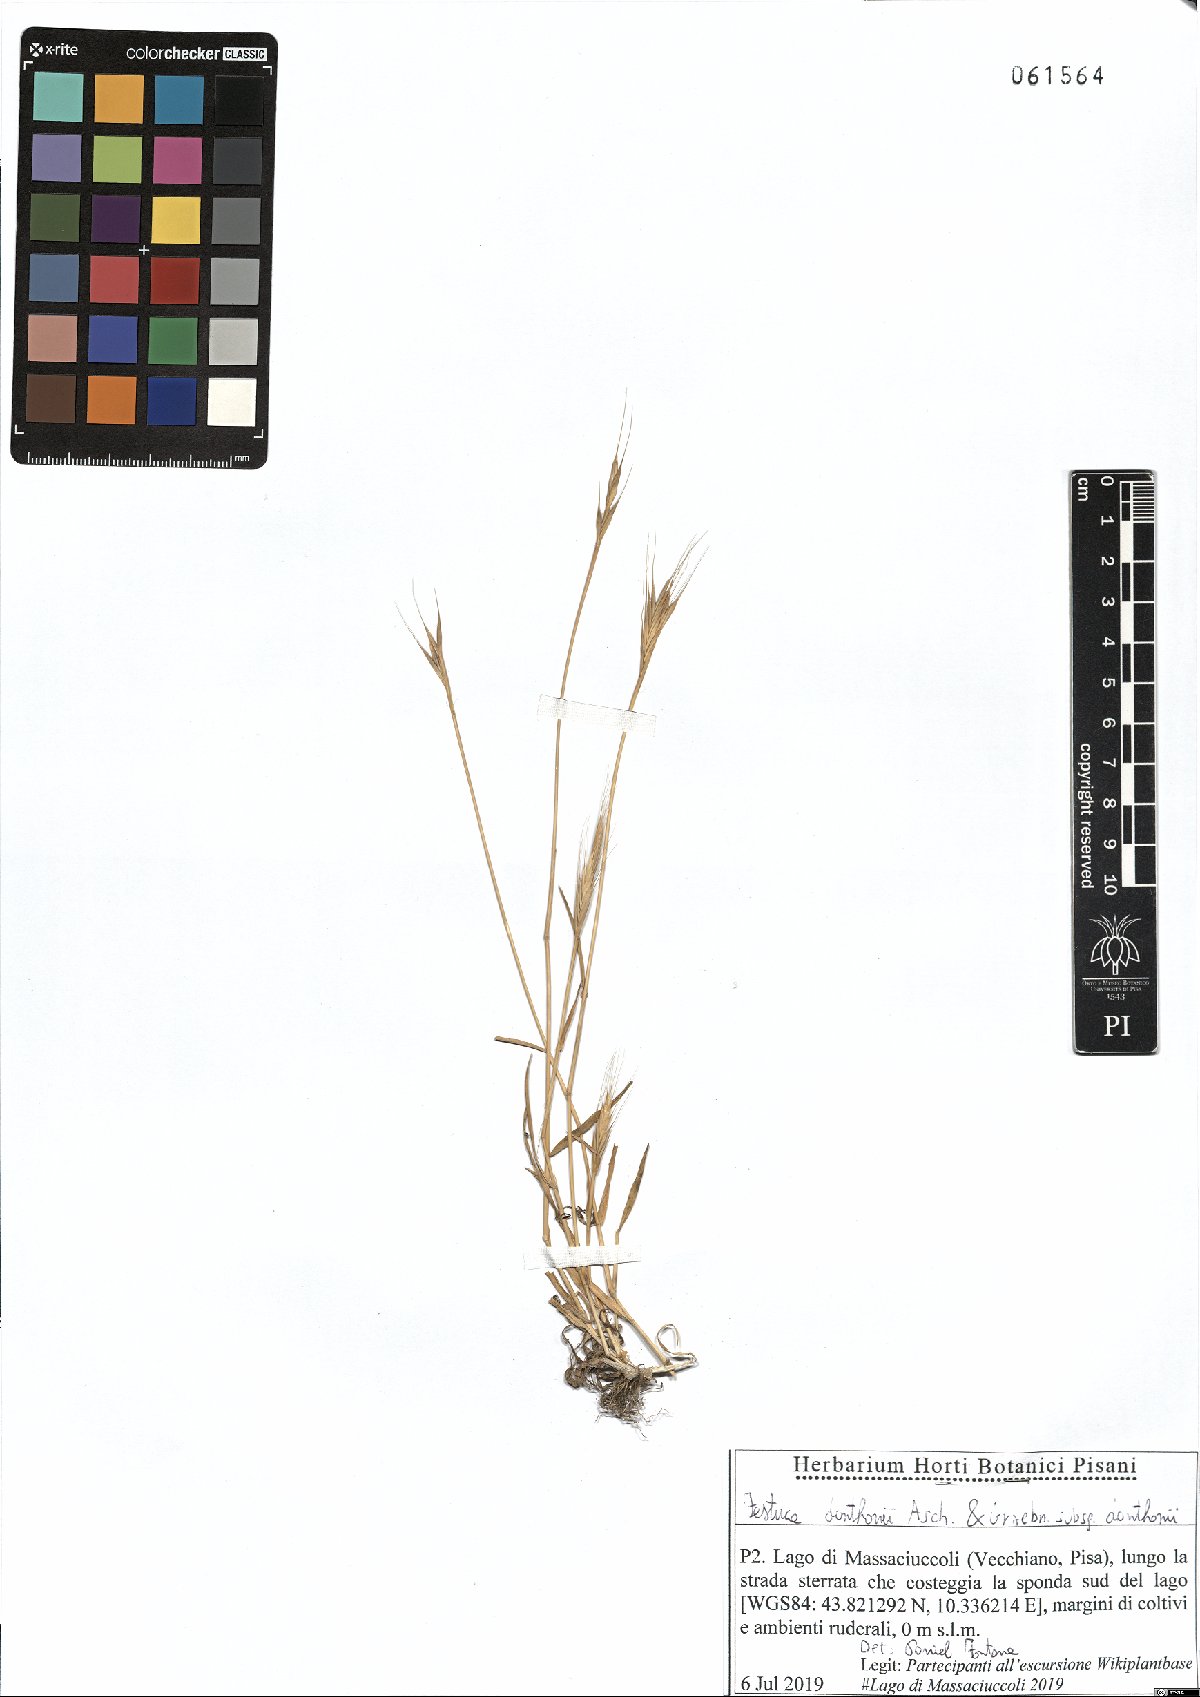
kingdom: Plantae
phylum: Tracheophyta
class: Liliopsida
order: Poales
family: Poaceae
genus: Festuca
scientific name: Festuca ambigua
